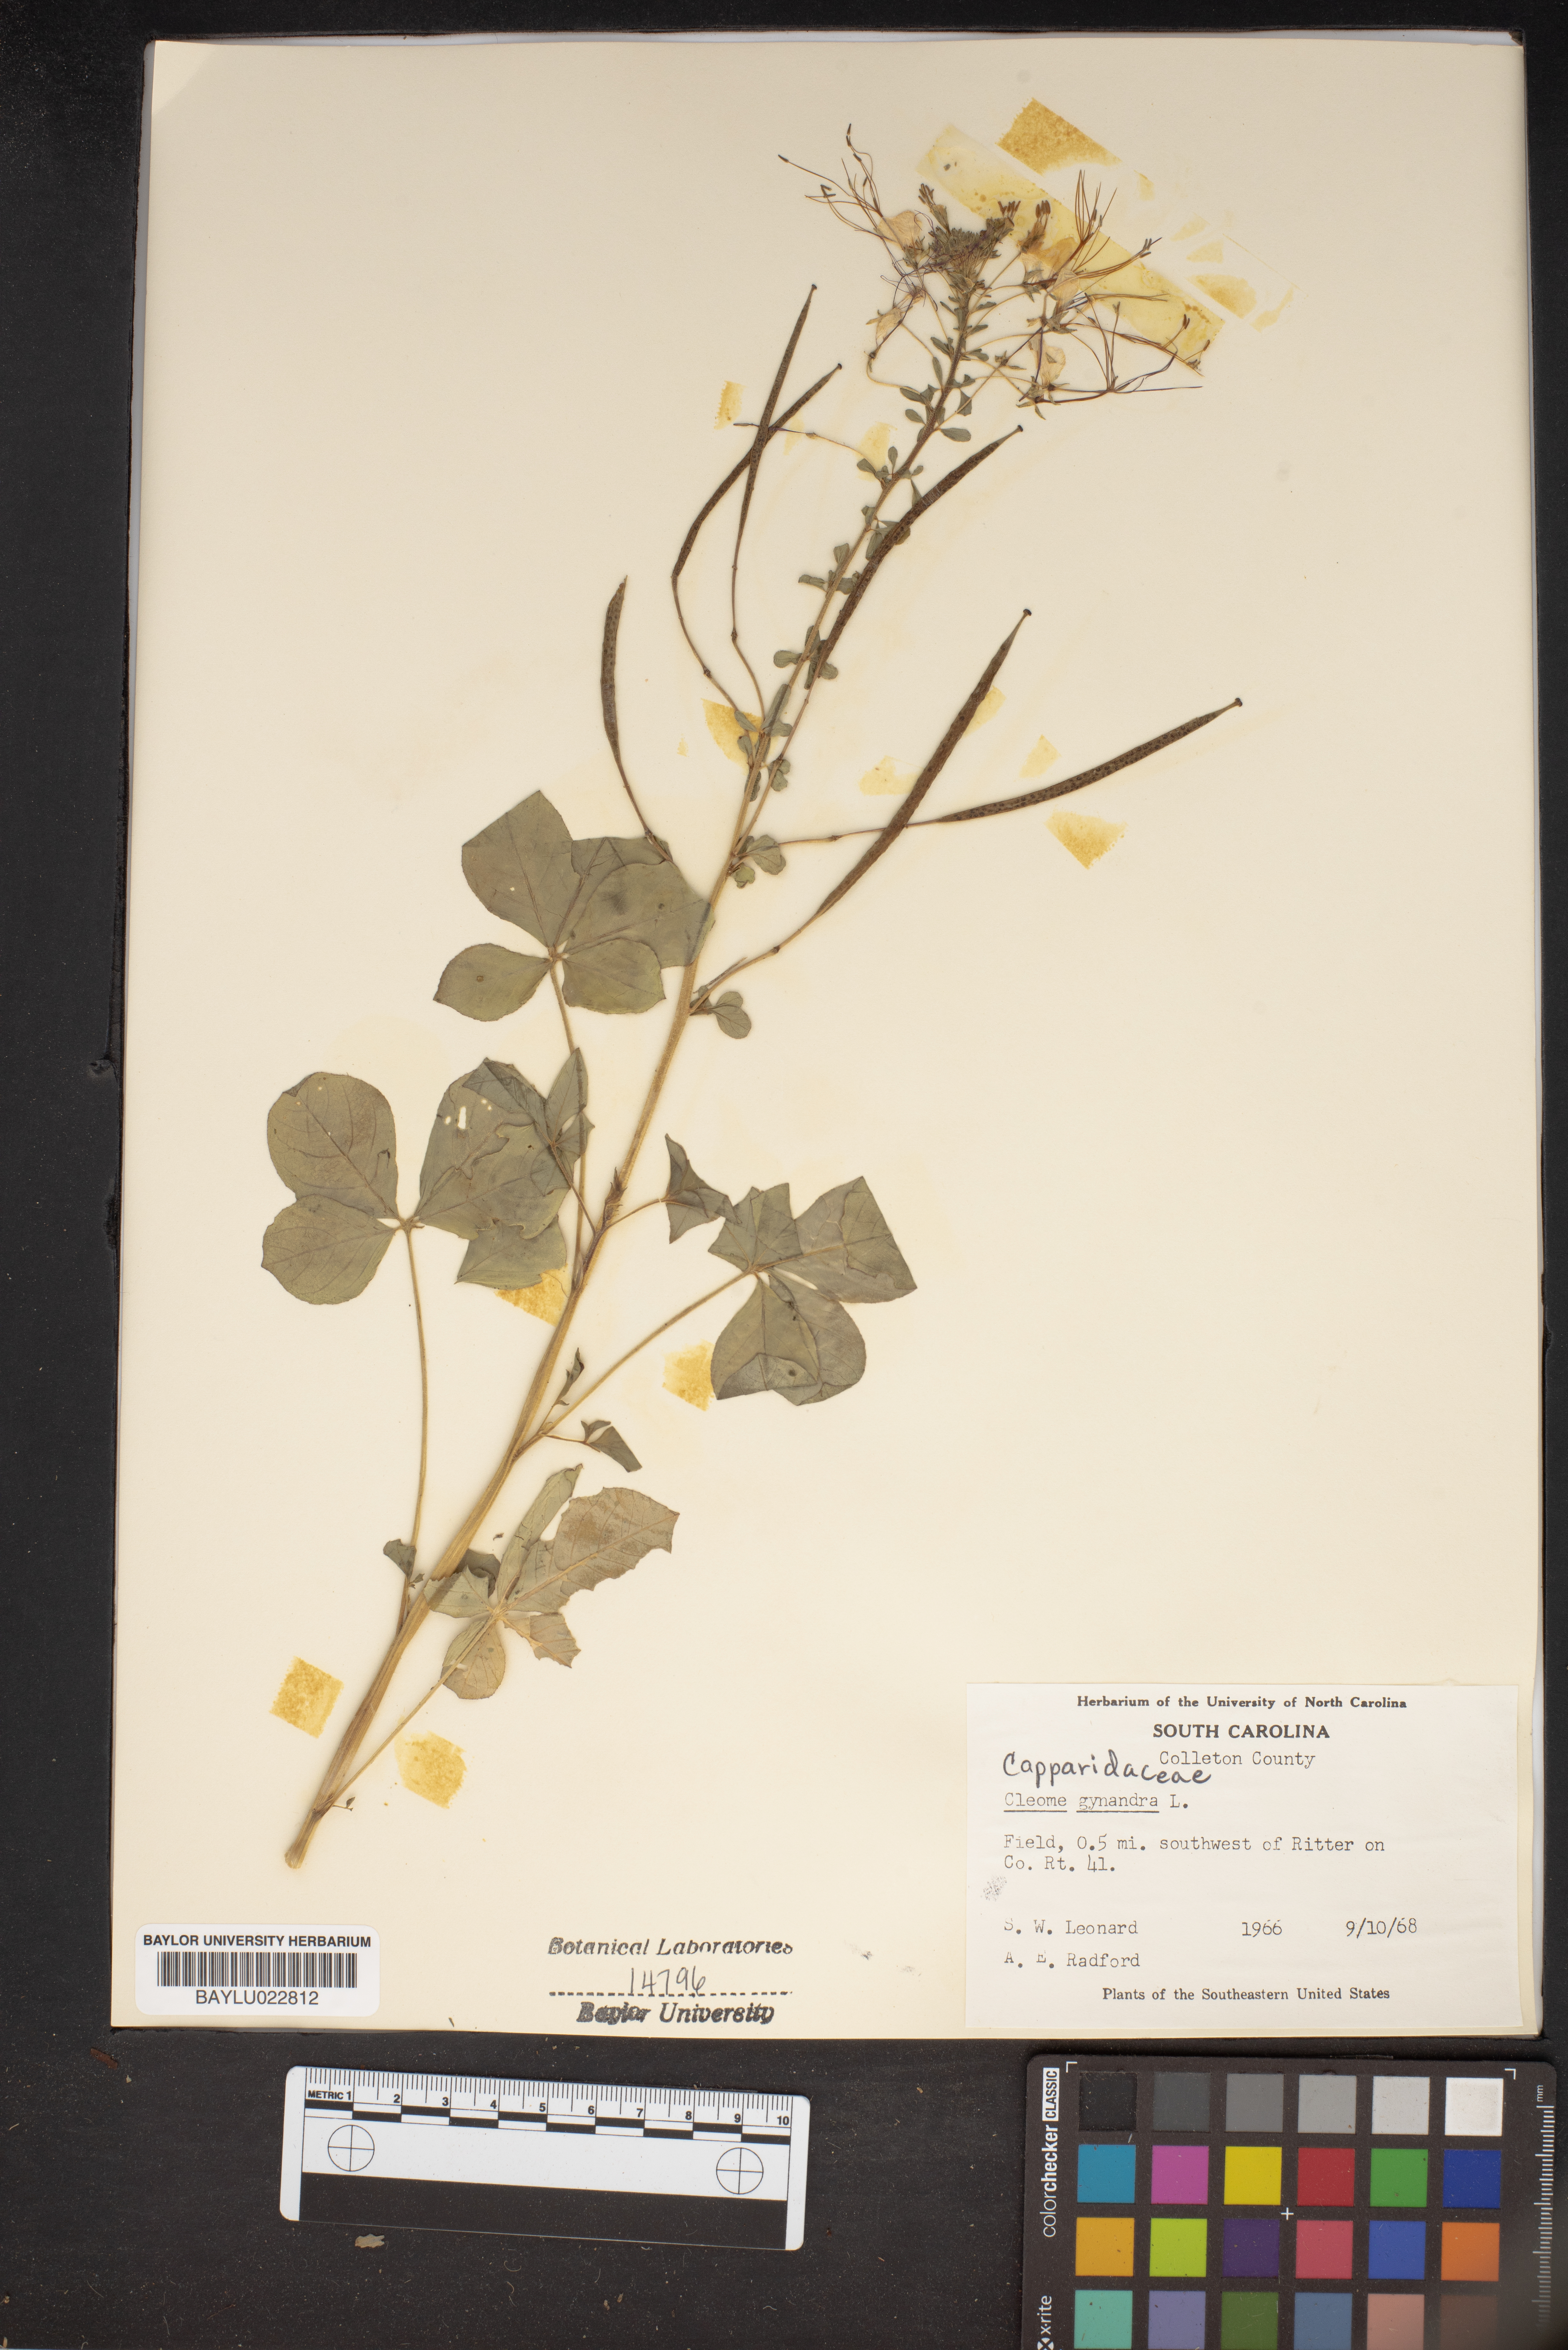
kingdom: Plantae
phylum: Tracheophyta
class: Magnoliopsida
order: Brassicales
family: Cleomaceae
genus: Gynandropsis
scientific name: Gynandropsis gynandra
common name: Spiderwisp
